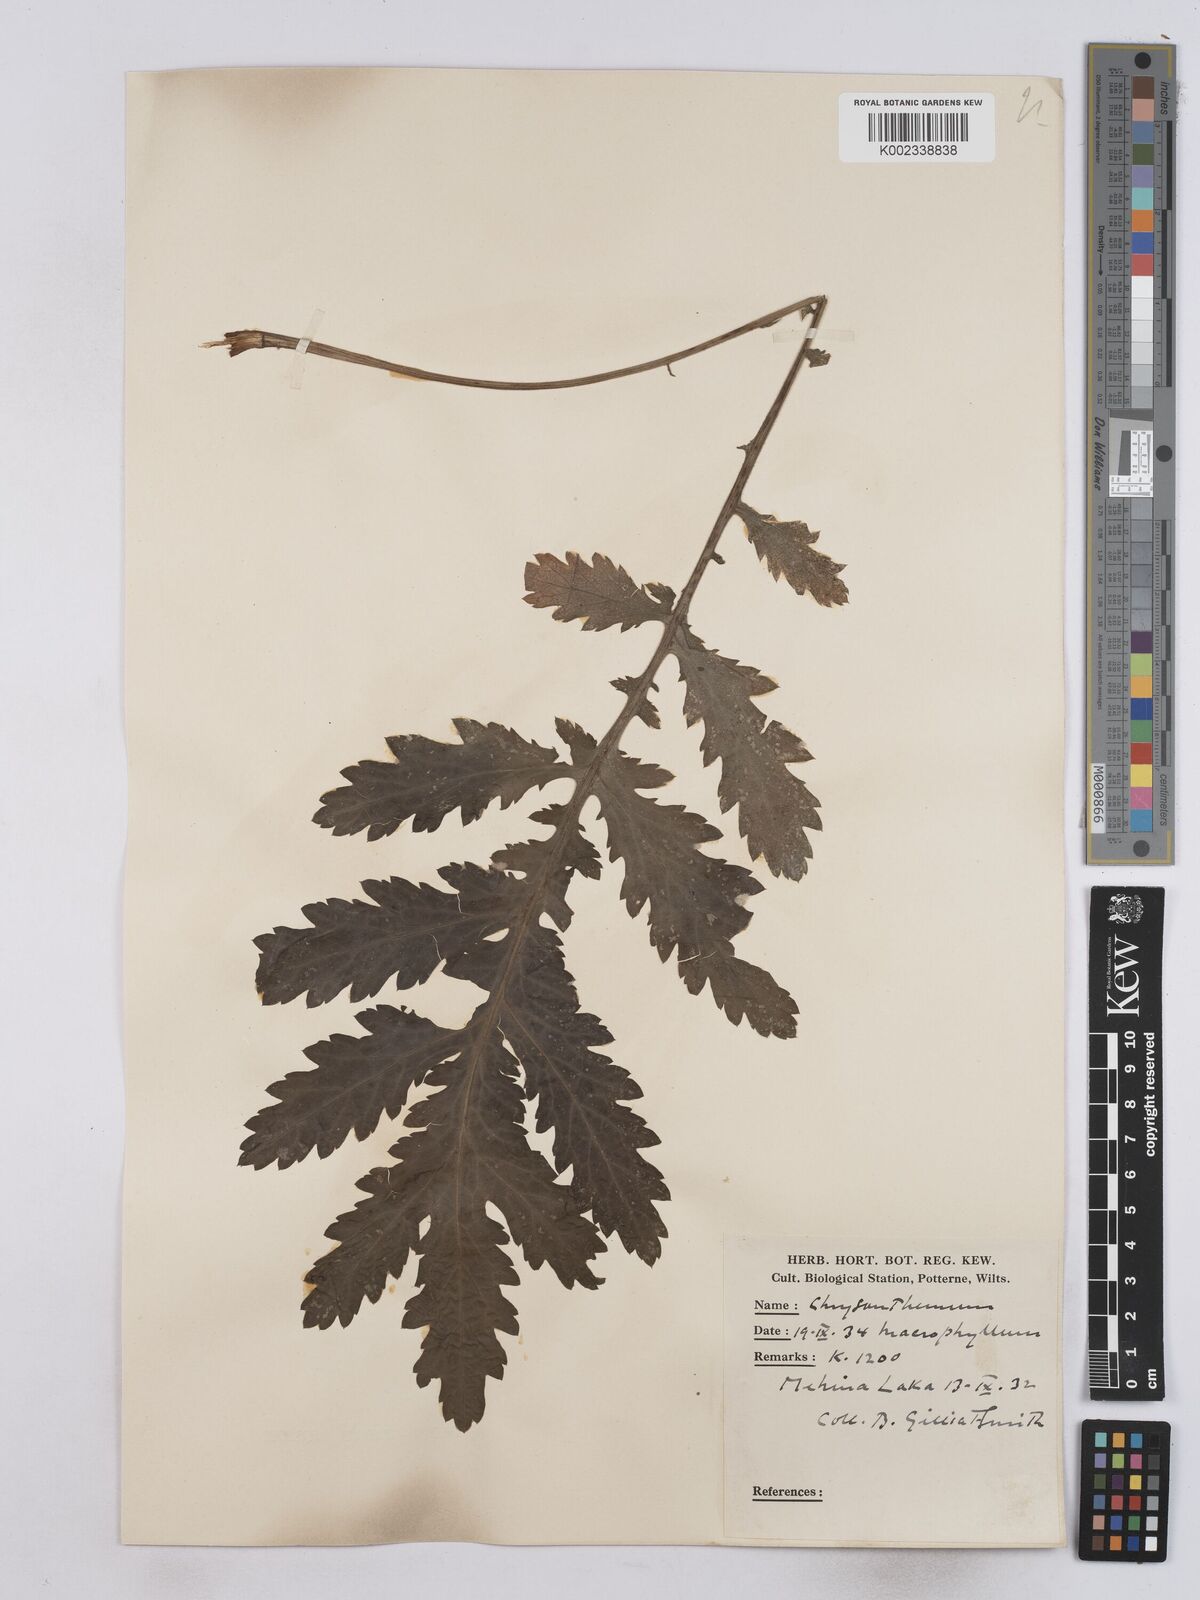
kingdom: Plantae
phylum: Tracheophyta
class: Magnoliopsida
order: Asterales
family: Asteraceae
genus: Tanacetum
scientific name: Tanacetum macrophyllum
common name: Rayed tansy
